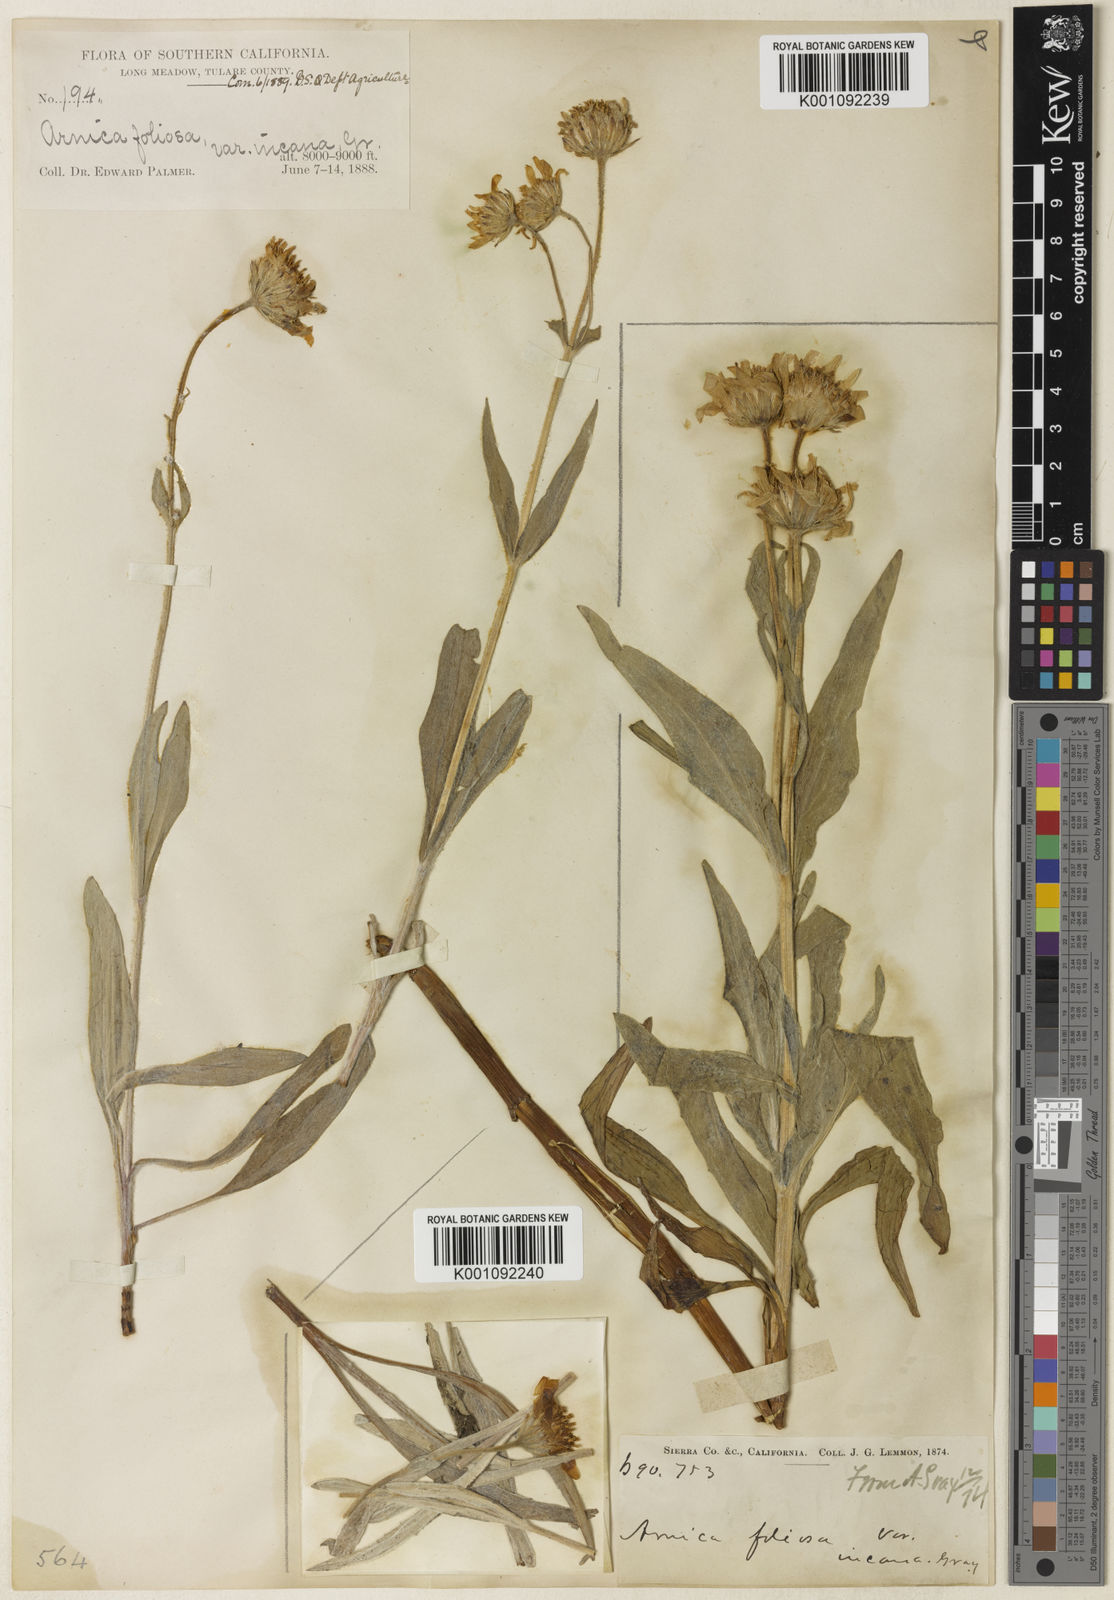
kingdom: Plantae
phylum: Tracheophyta
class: Magnoliopsida
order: Asterales
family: Asteraceae
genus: Arnica
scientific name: Arnica chamissonis
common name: Leafy arnica
